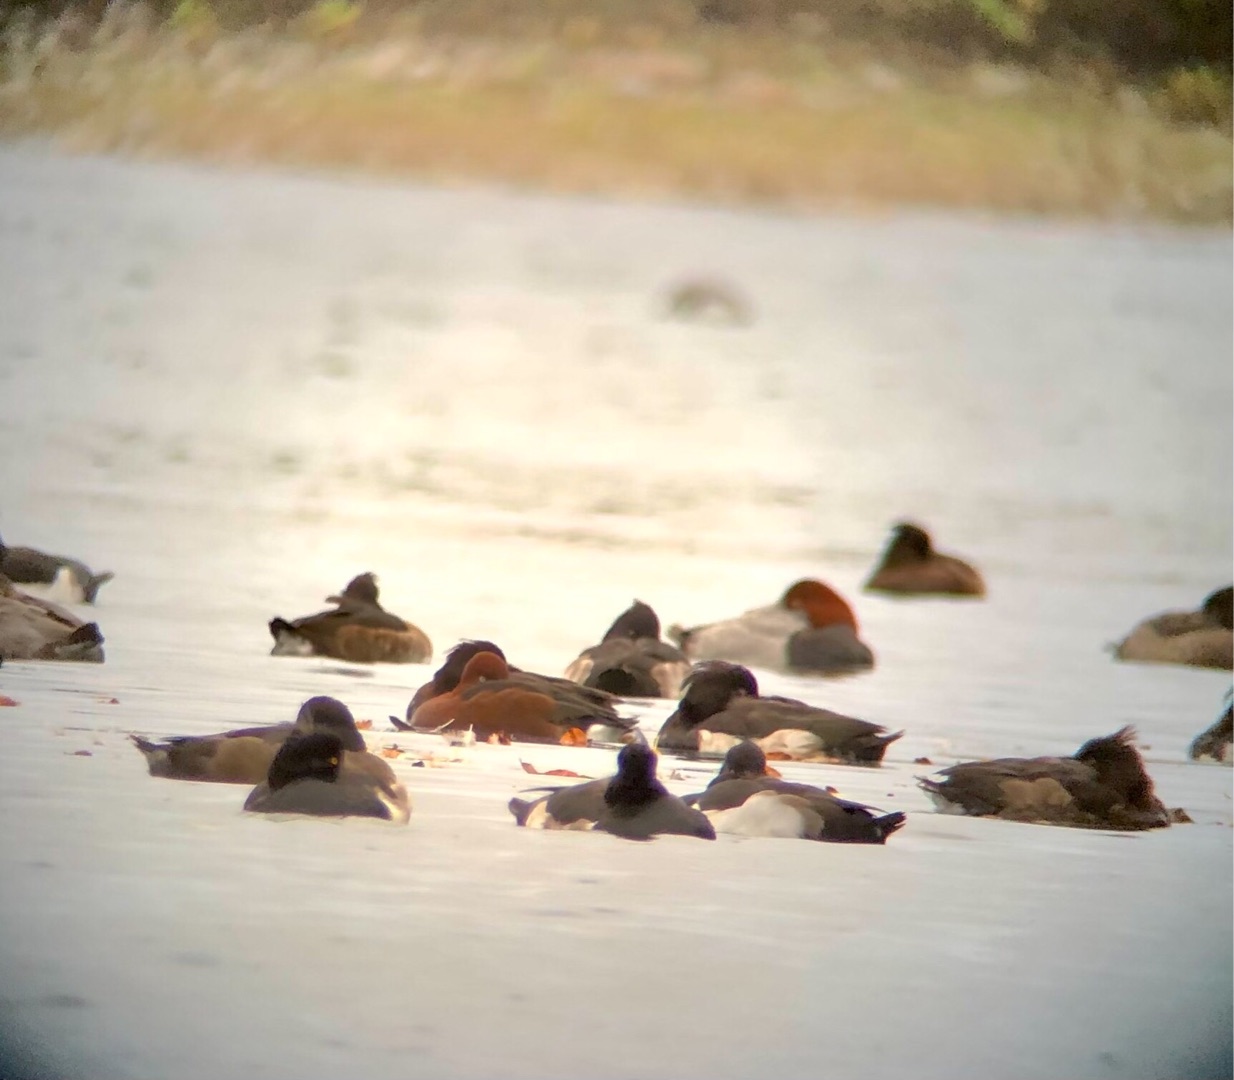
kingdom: Animalia
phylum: Chordata
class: Aves
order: Anseriformes
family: Anatidae
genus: Aythya
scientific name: Aythya ferina
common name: Taffeland
